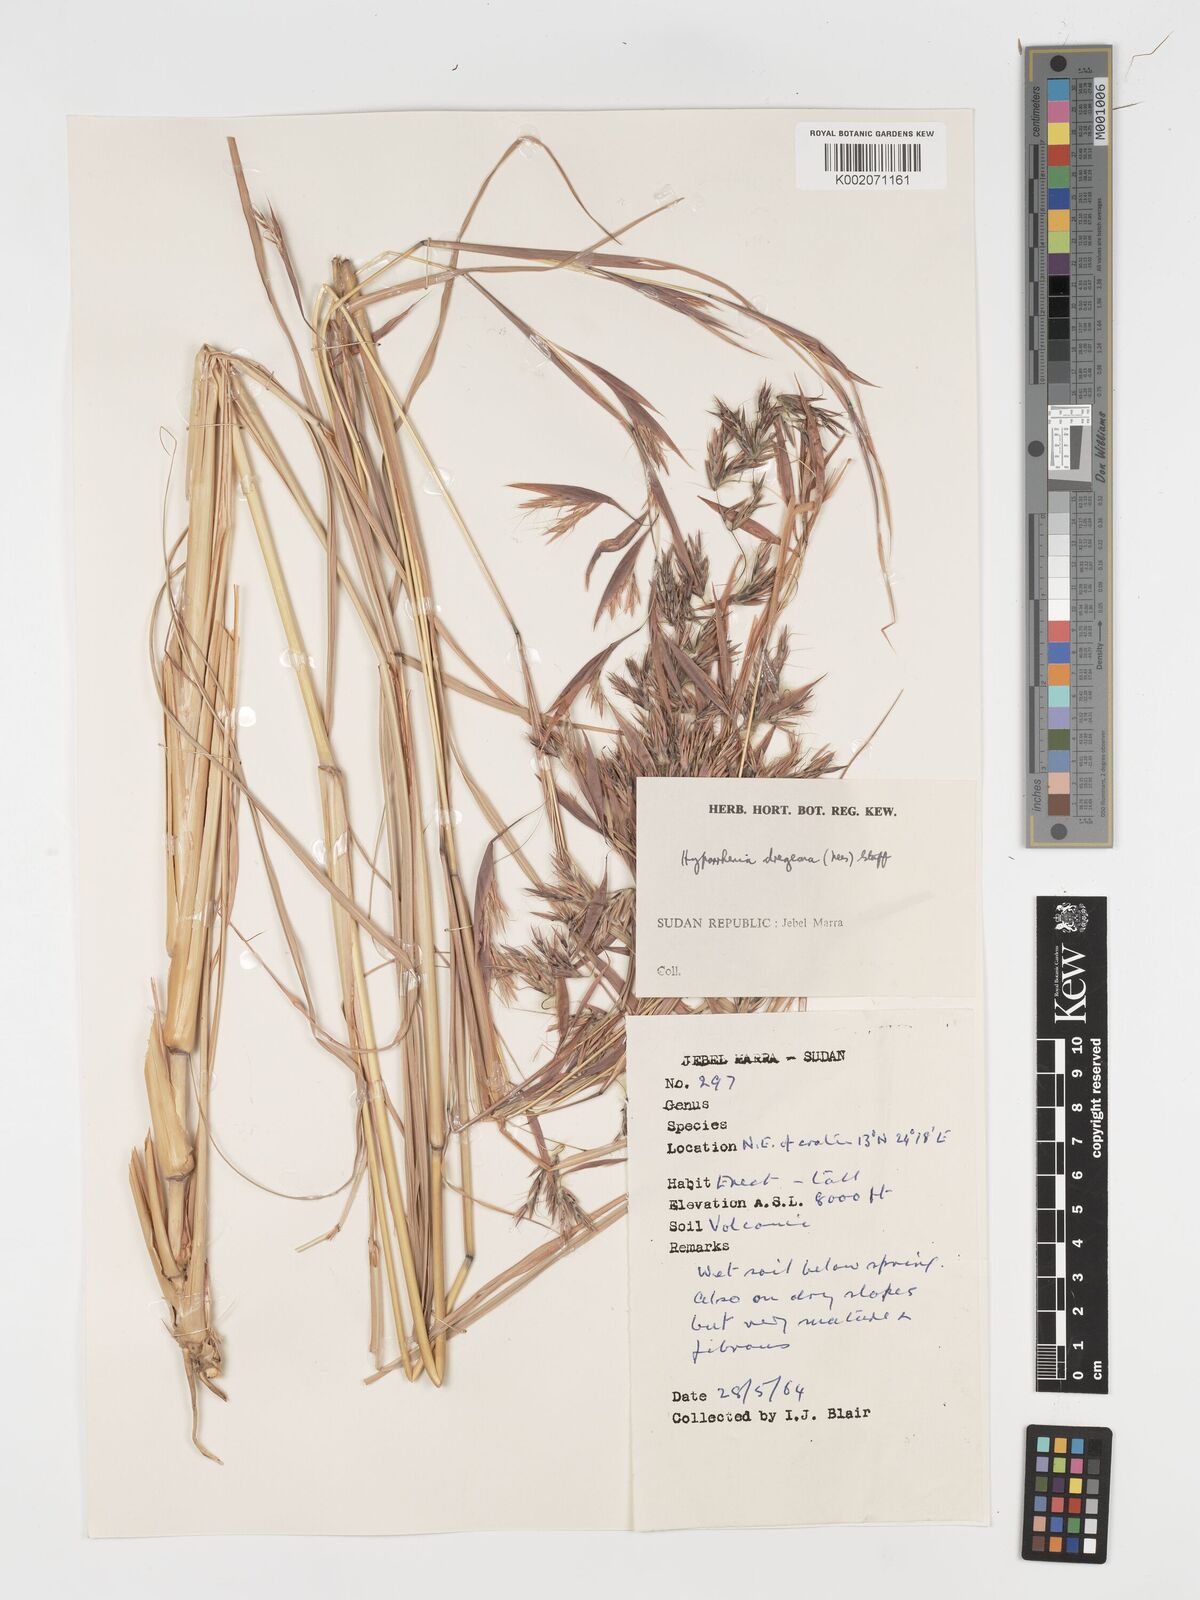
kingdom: Plantae
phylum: Tracheophyta
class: Liliopsida
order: Poales
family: Poaceae
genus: Hyparrhenia
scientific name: Hyparrhenia dregeana
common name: Silky thatching grass
